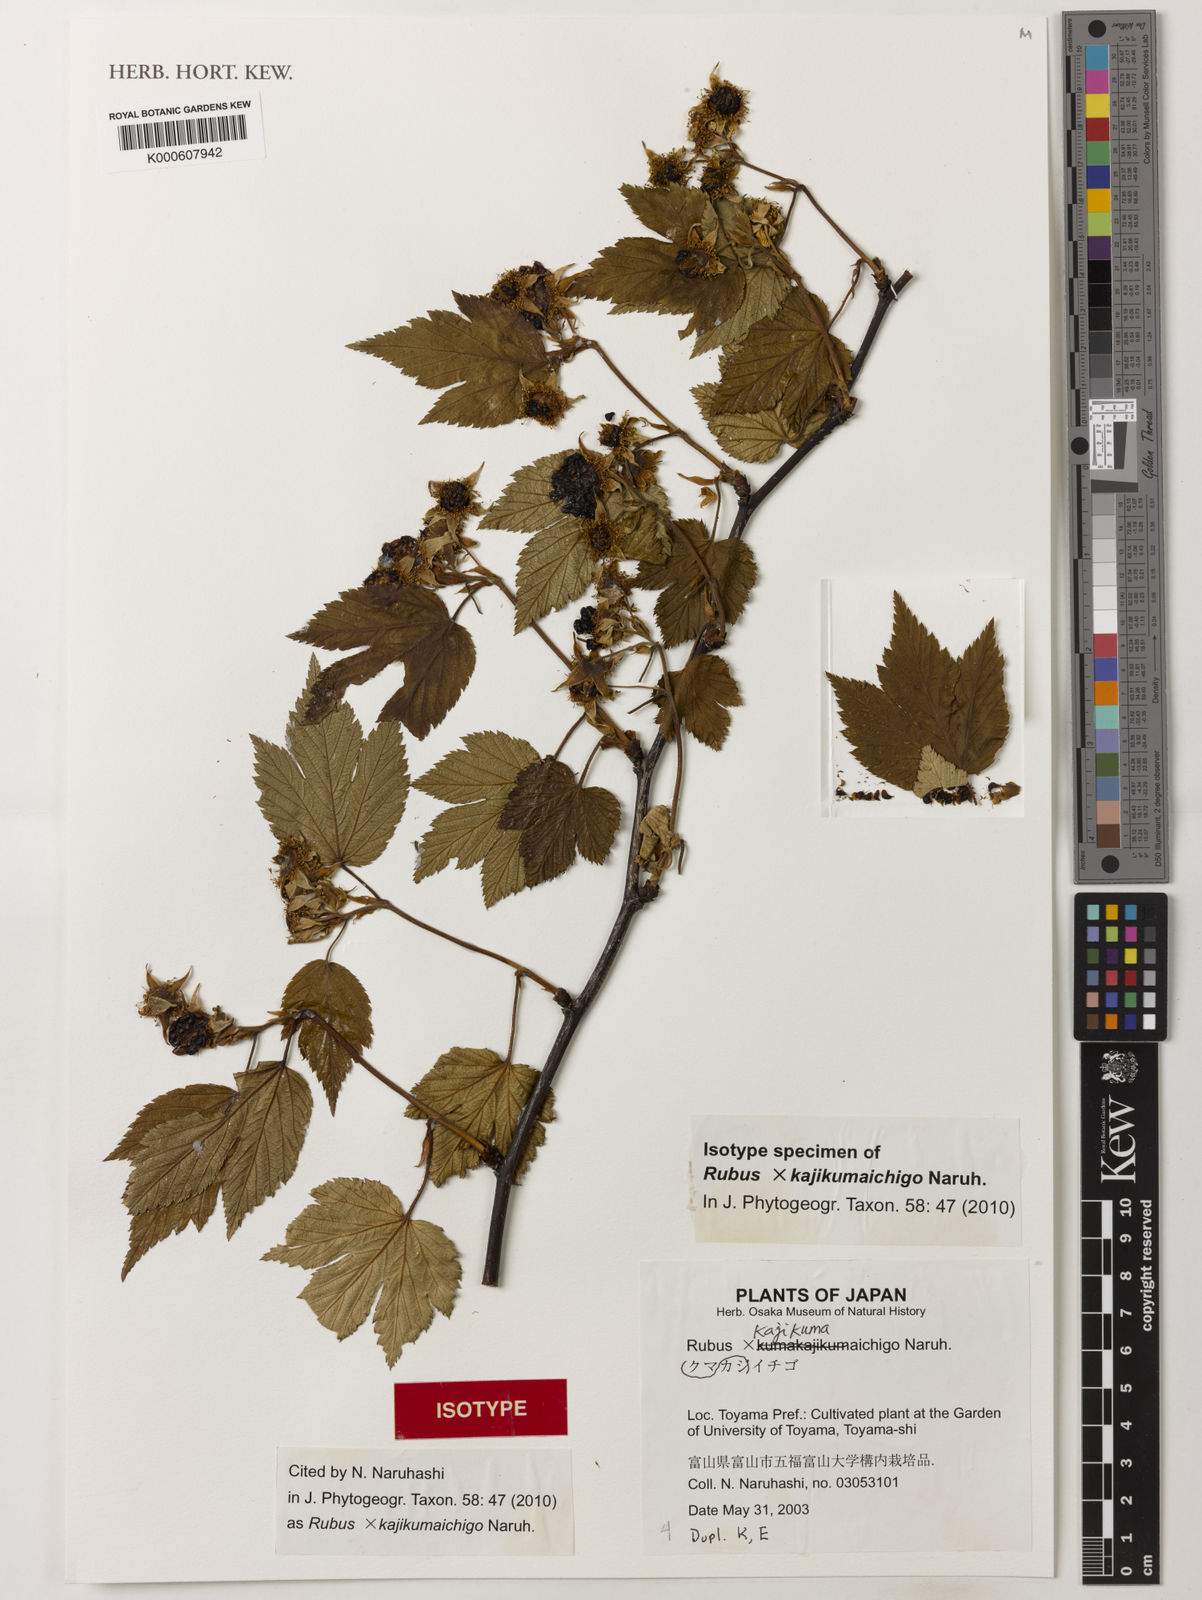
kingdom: Plantae
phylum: Tracheophyta
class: Magnoliopsida
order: Rosales
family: Rosaceae
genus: Rubus
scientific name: Rubus
